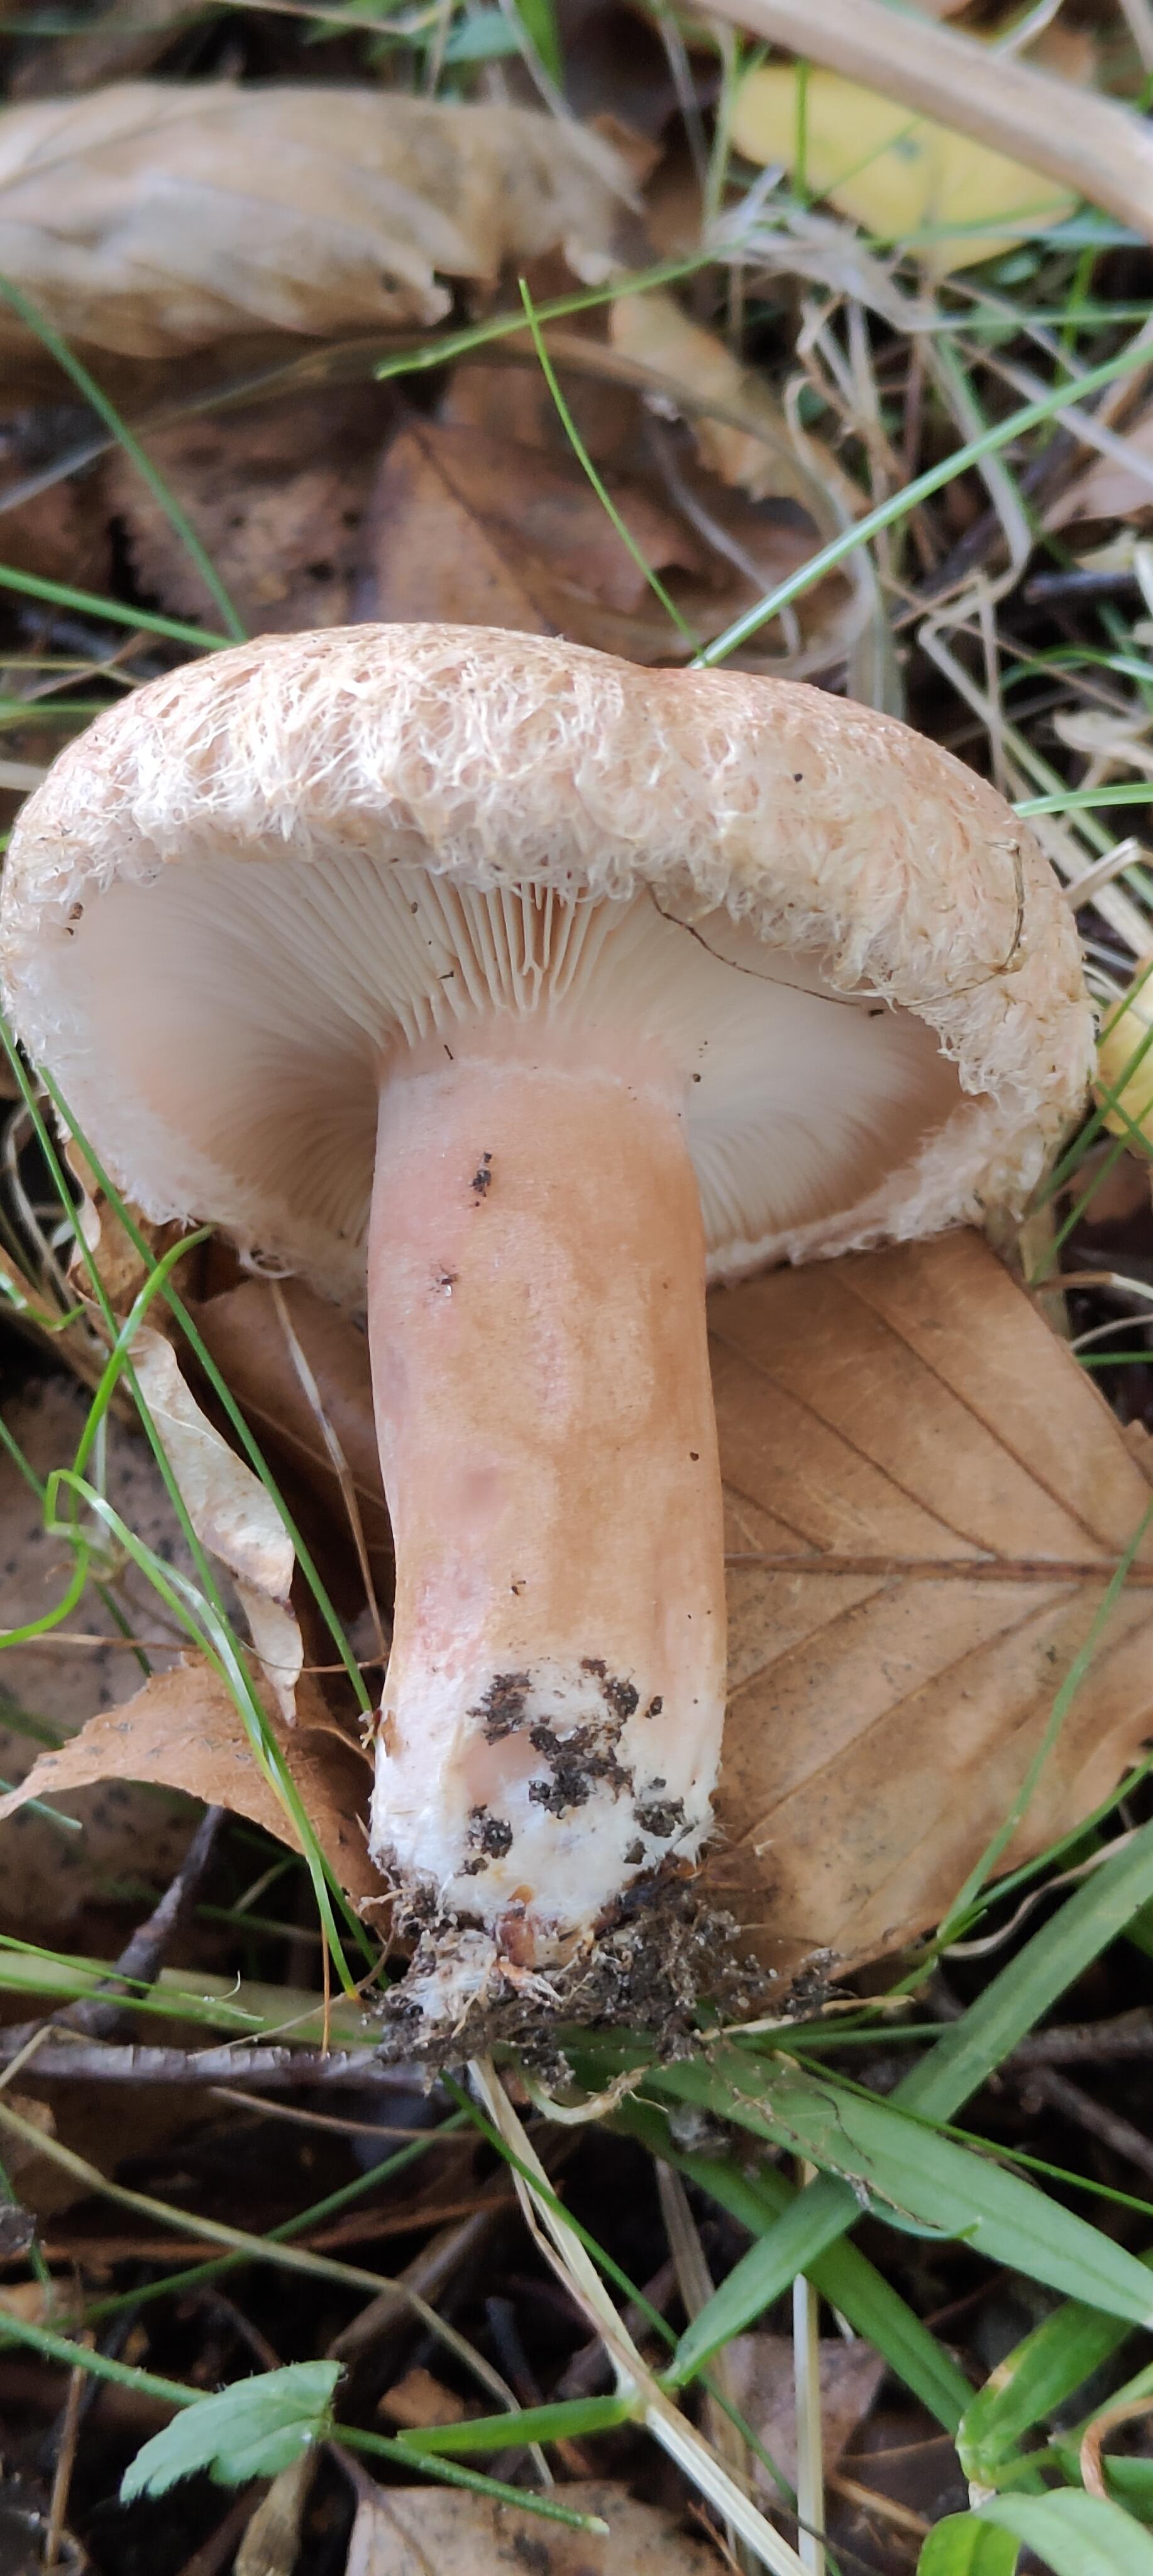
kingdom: Fungi
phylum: Basidiomycota
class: Agaricomycetes
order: Russulales
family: Russulaceae
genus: Lactarius
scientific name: Lactarius torminosus
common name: skægget mælkehat
